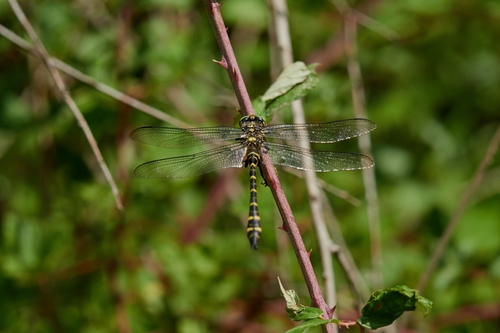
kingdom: Animalia
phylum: Arthropoda
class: Insecta
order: Odonata
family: Cordulegastridae
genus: Cordulegaster
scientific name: Cordulegaster boltonii
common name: Golden-ringed dragonfly
